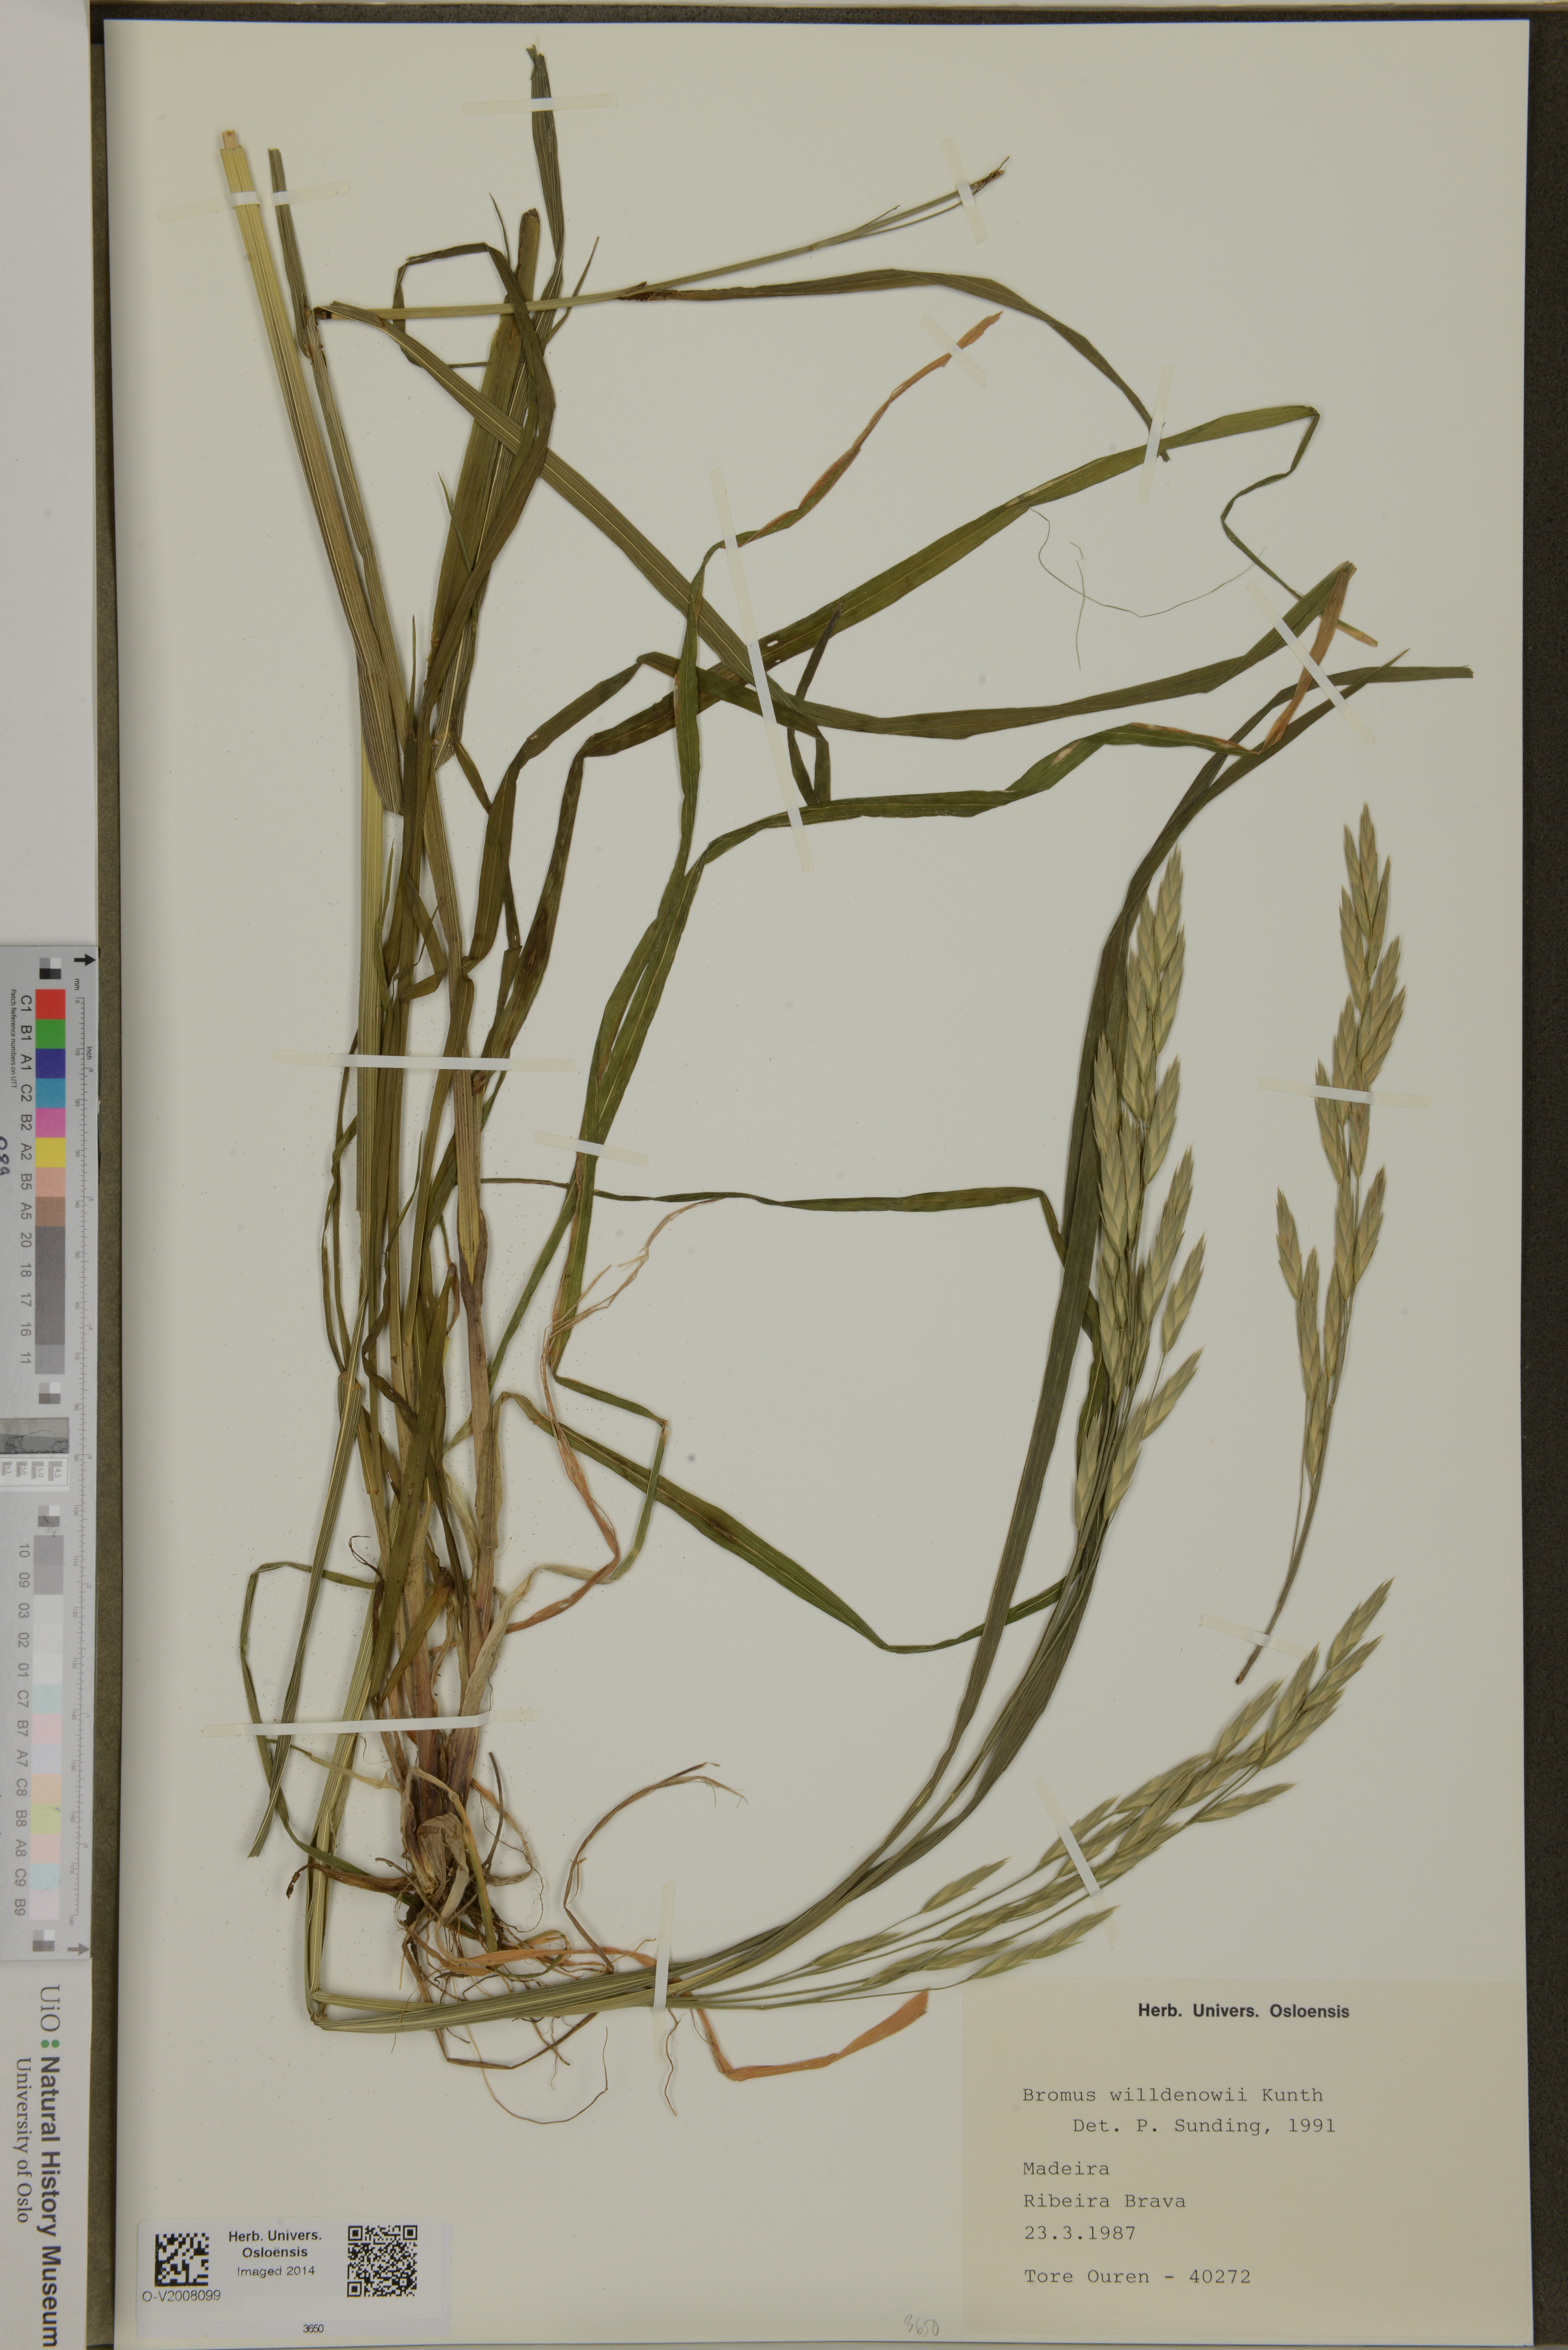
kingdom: Plantae
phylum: Tracheophyta
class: Liliopsida
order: Poales
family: Poaceae
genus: Bromus
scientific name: Bromus catharticus
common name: Rescuegrass
